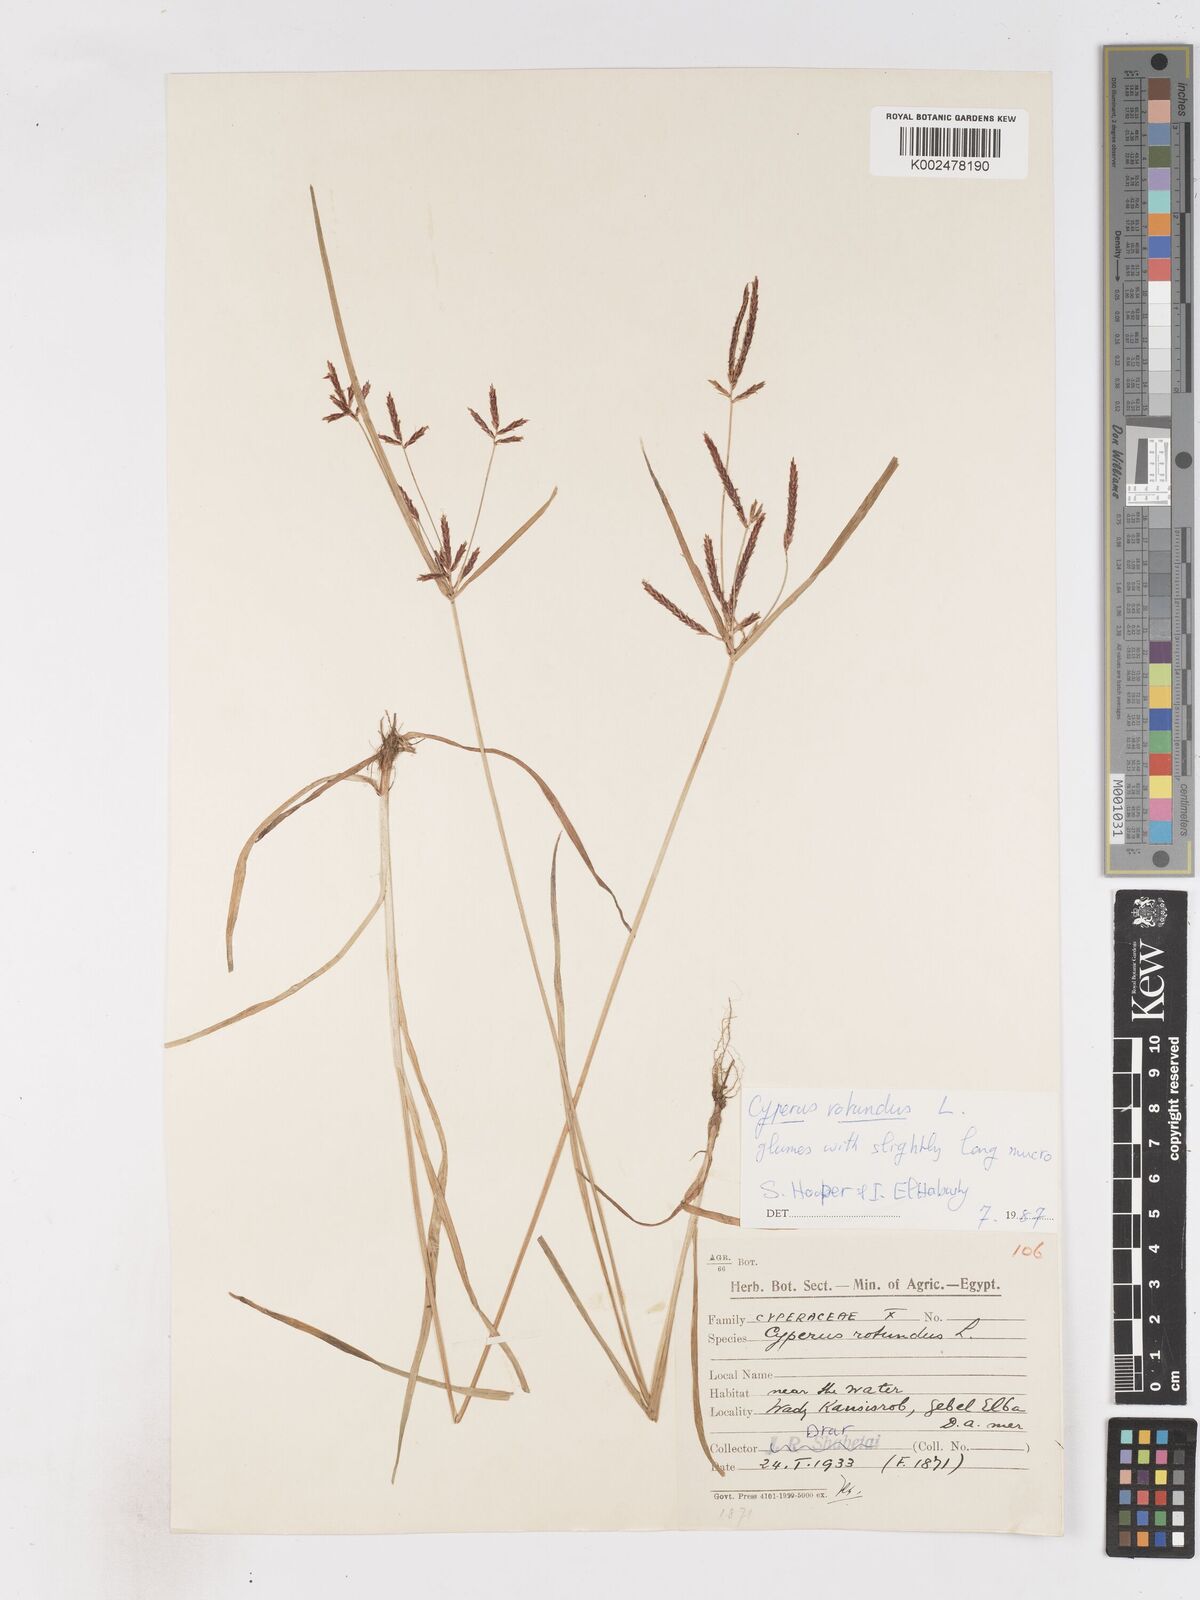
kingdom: Plantae
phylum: Tracheophyta
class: Liliopsida
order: Poales
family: Cyperaceae
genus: Cyperus
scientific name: Cyperus rotundus
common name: Nutgrass
